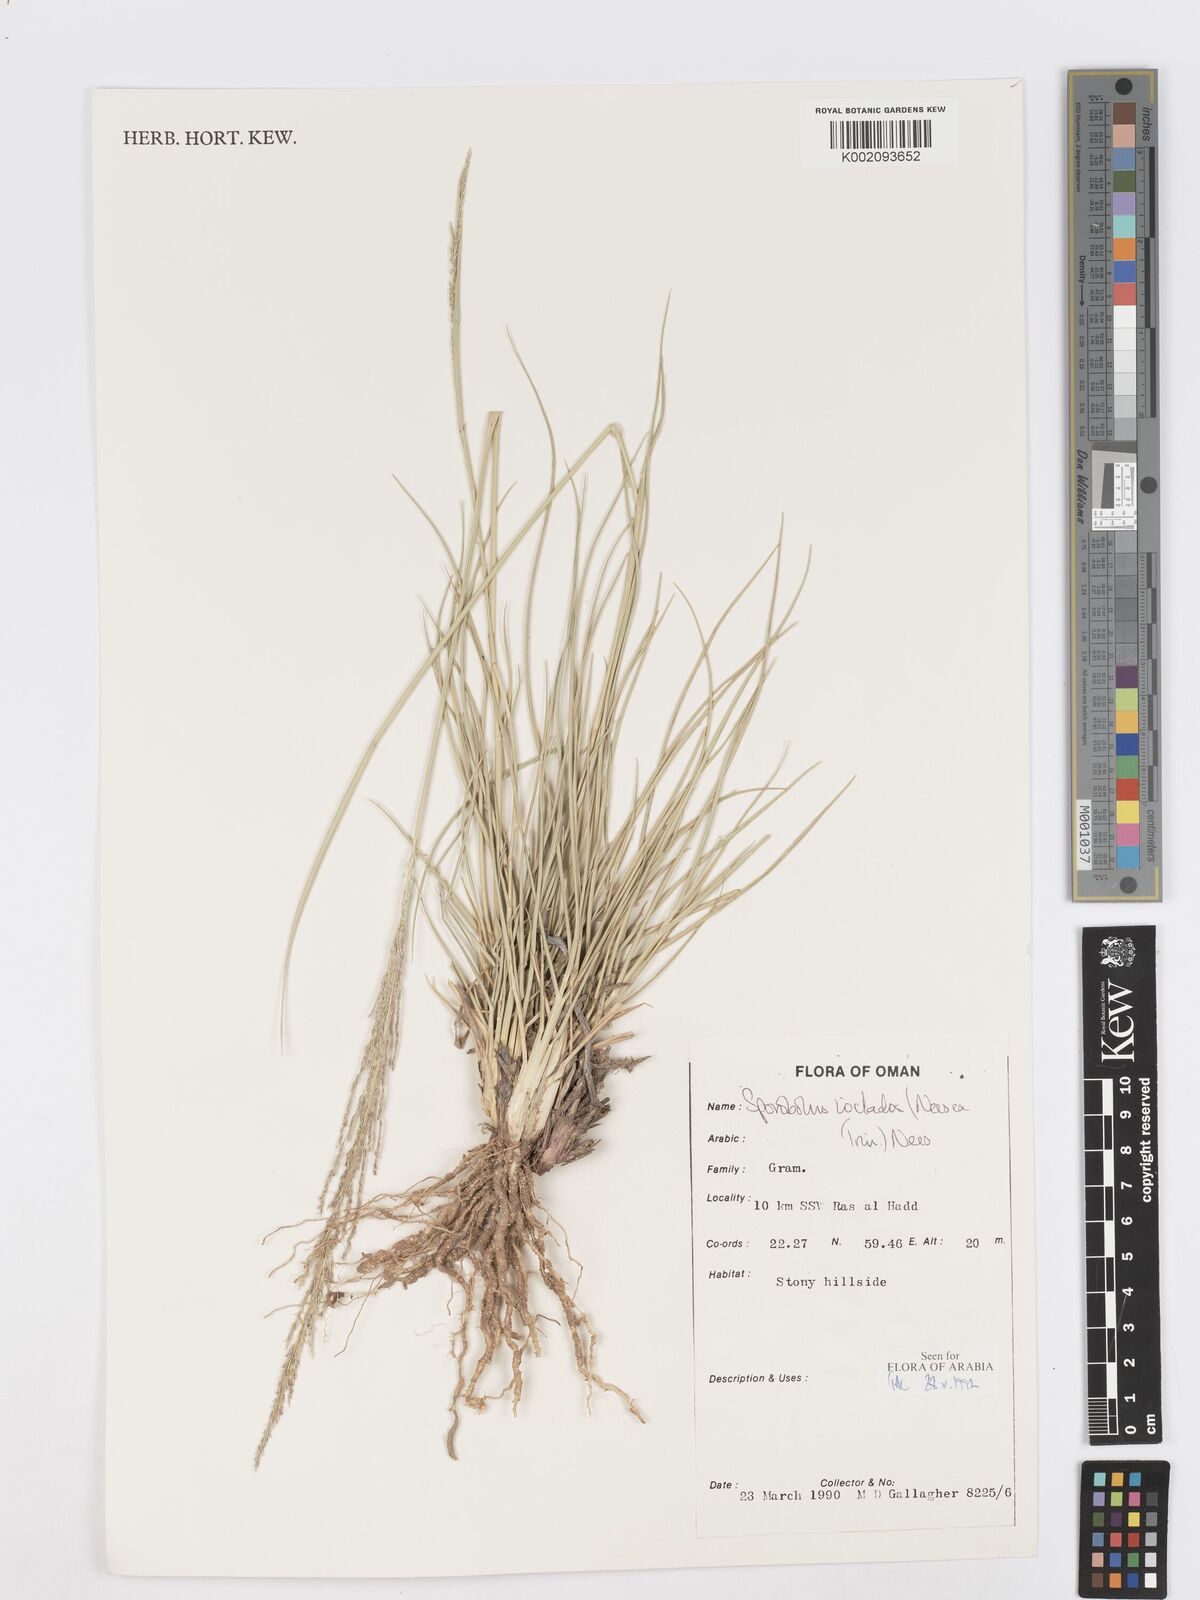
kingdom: Plantae
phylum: Tracheophyta
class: Liliopsida
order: Poales
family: Poaceae
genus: Sporobolus
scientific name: Sporobolus ioclados
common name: Pan dropseed
